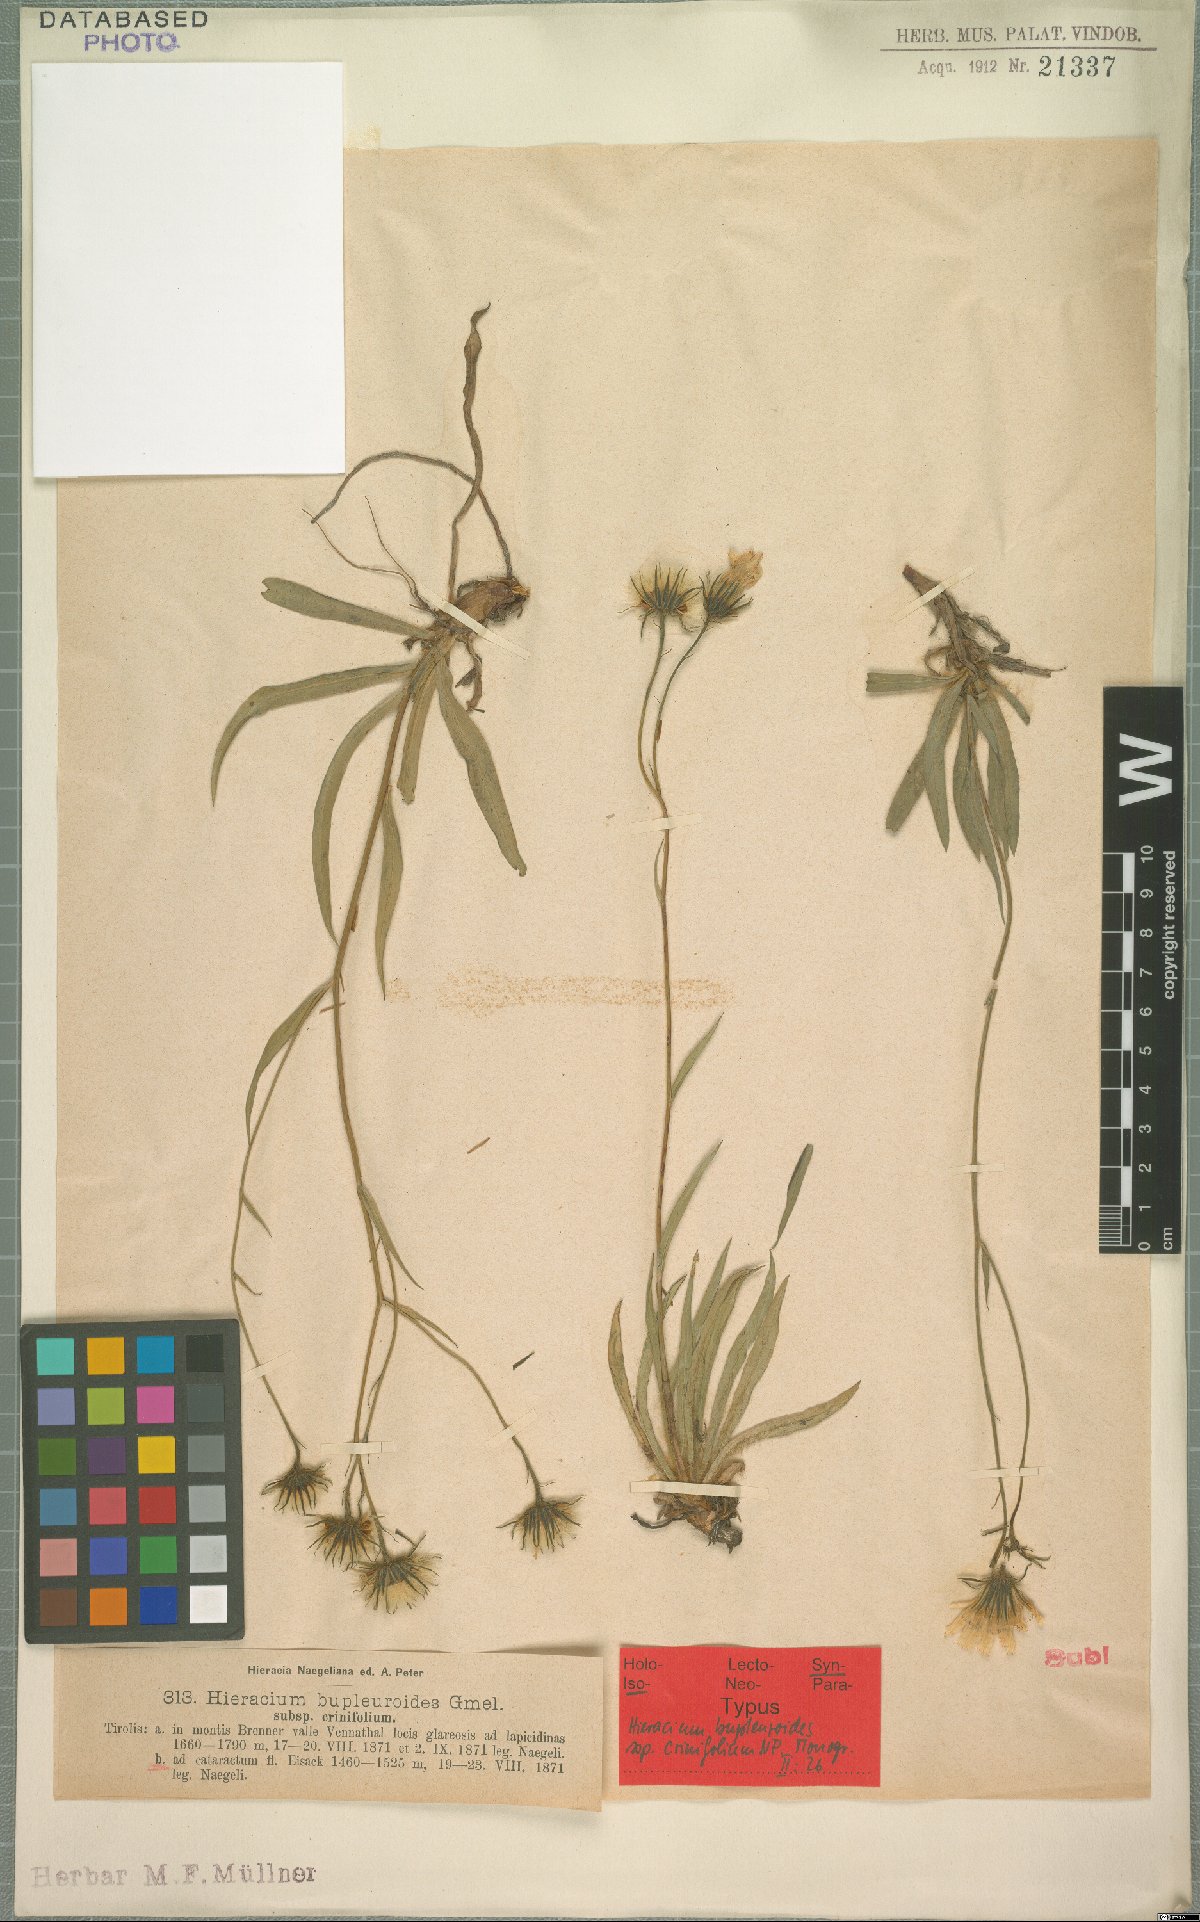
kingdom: Plantae
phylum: Tracheophyta
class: Magnoliopsida
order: Asterales
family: Asteraceae
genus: Hieracium
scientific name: Hieracium crinifolium
